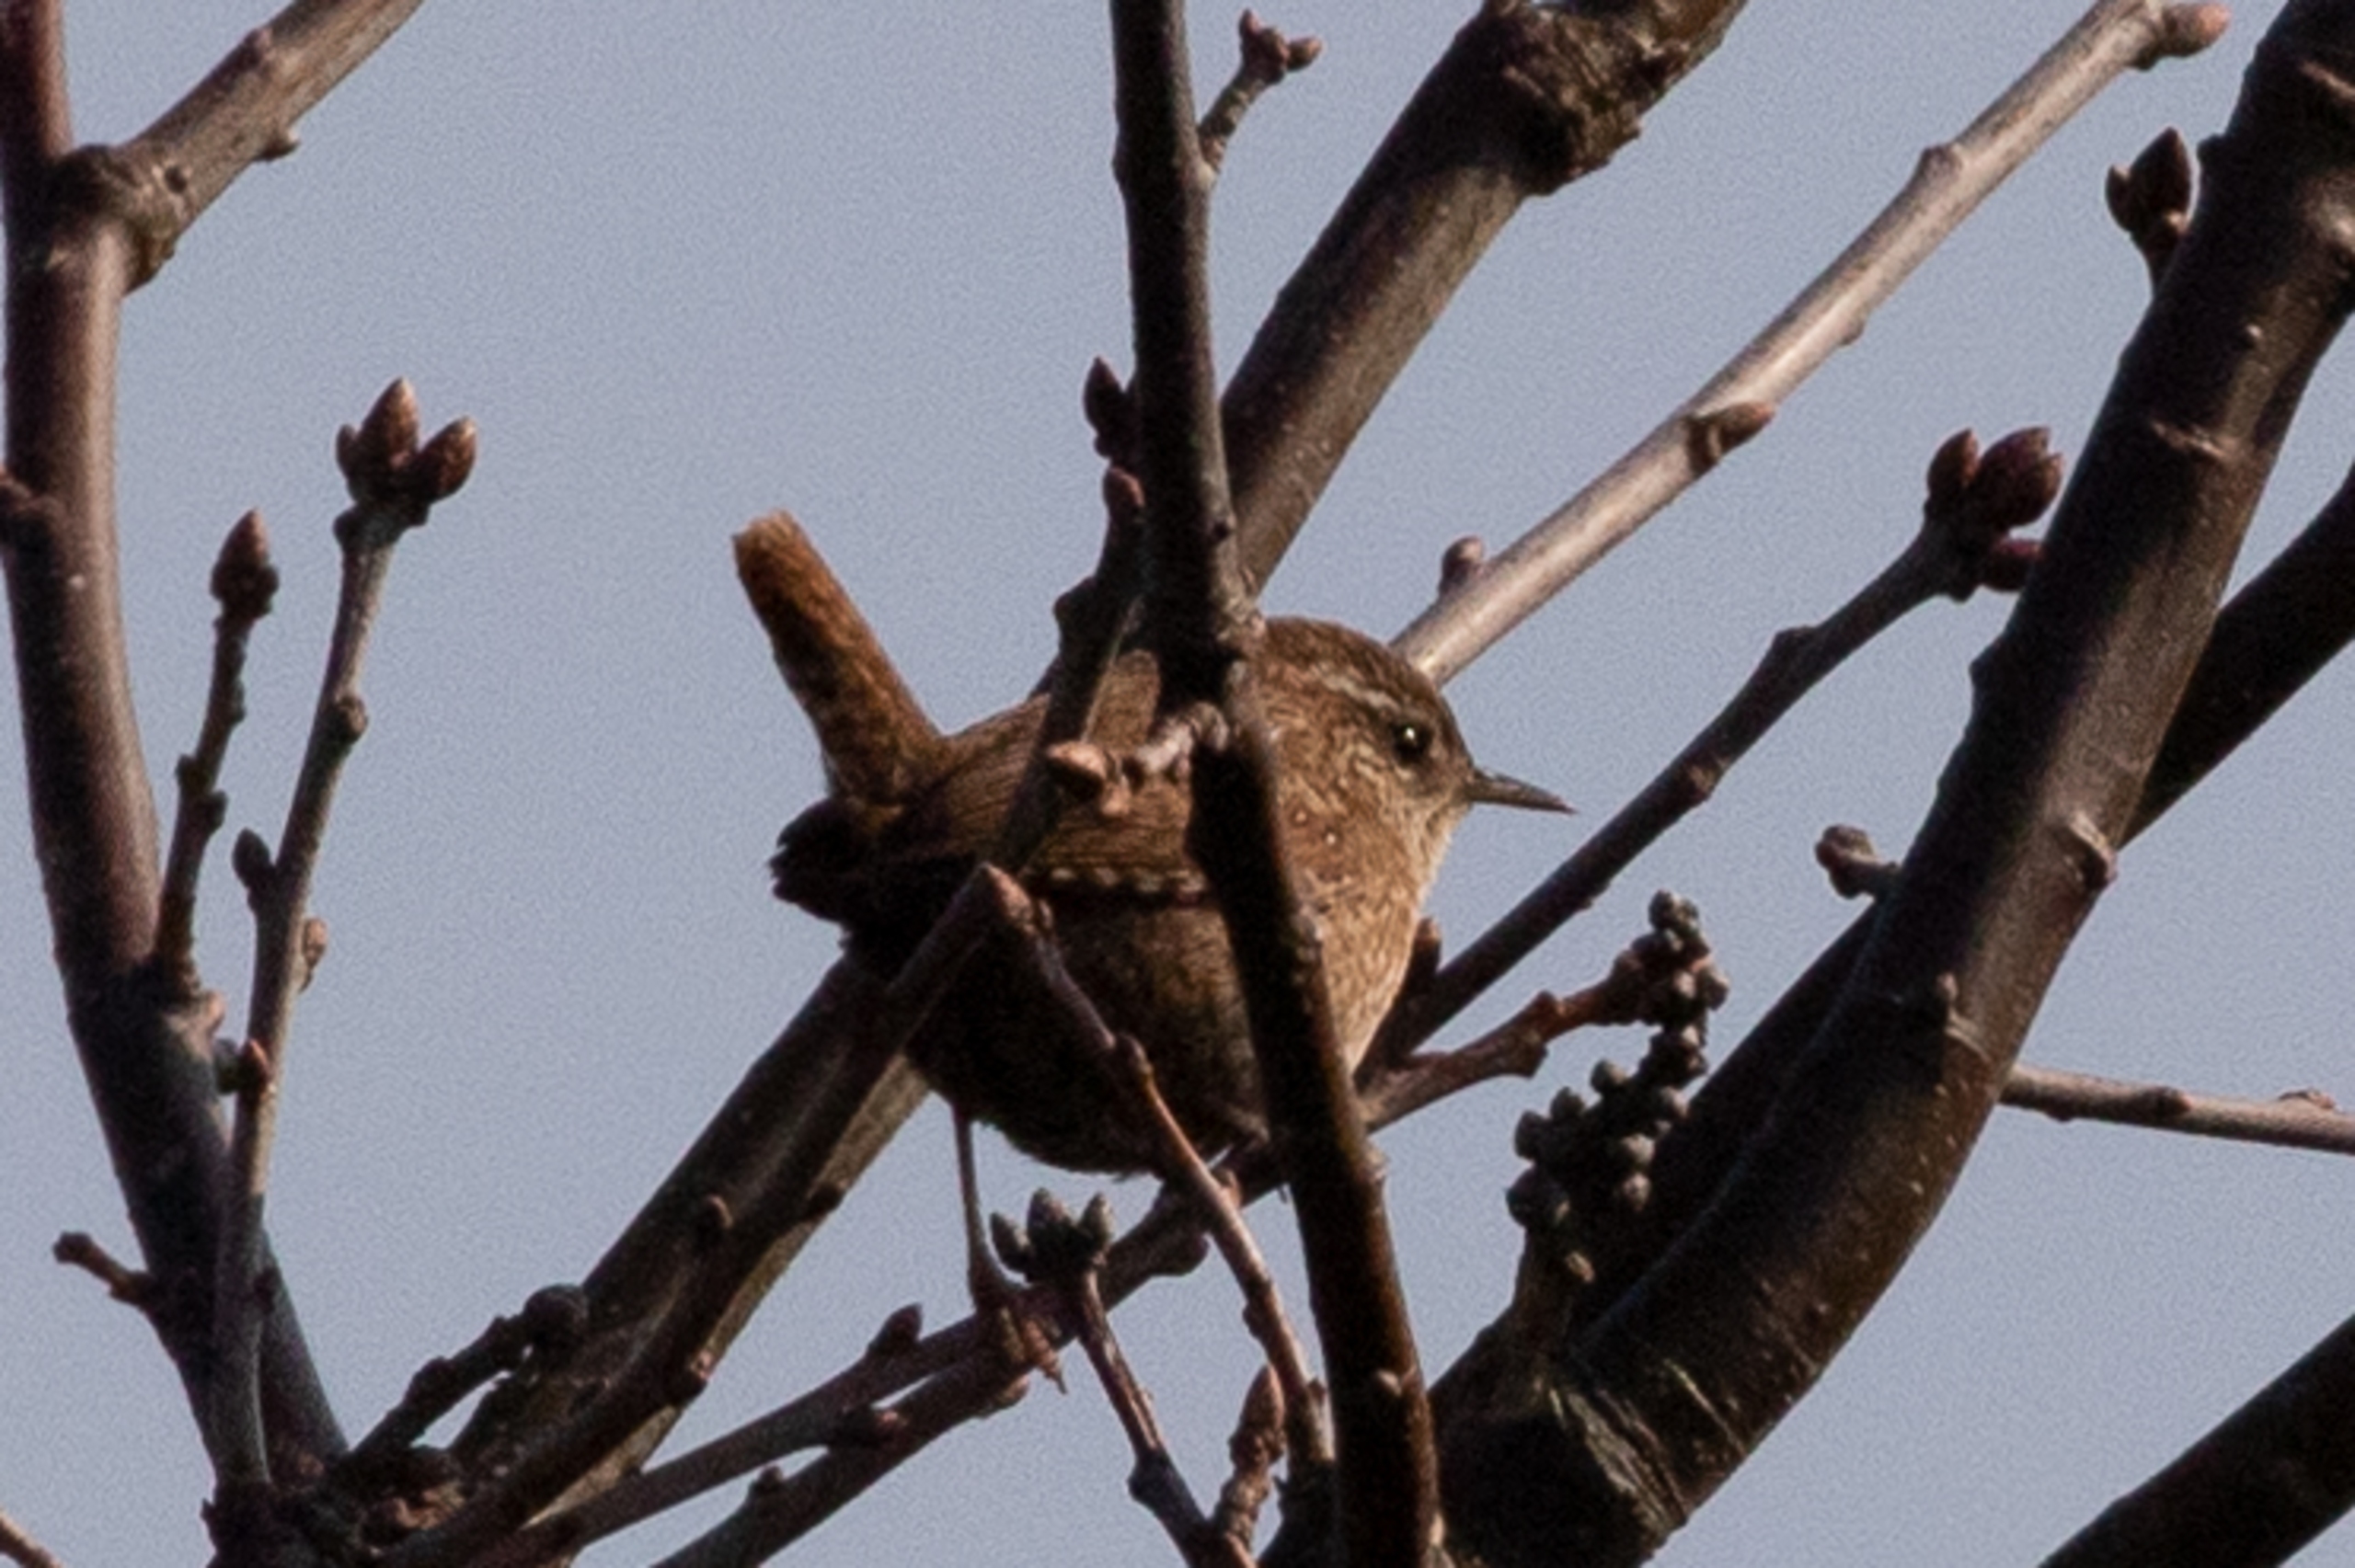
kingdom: Animalia
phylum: Chordata
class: Aves
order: Passeriformes
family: Troglodytidae
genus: Troglodytes
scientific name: Troglodytes troglodytes
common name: Gærdesmutte
